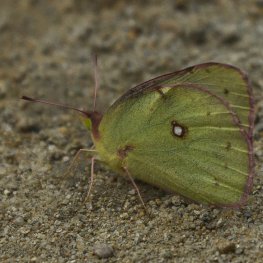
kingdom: Animalia
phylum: Arthropoda
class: Insecta
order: Lepidoptera
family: Pieridae
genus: Colias
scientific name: Colias philodice
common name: Clouded Sulphur
